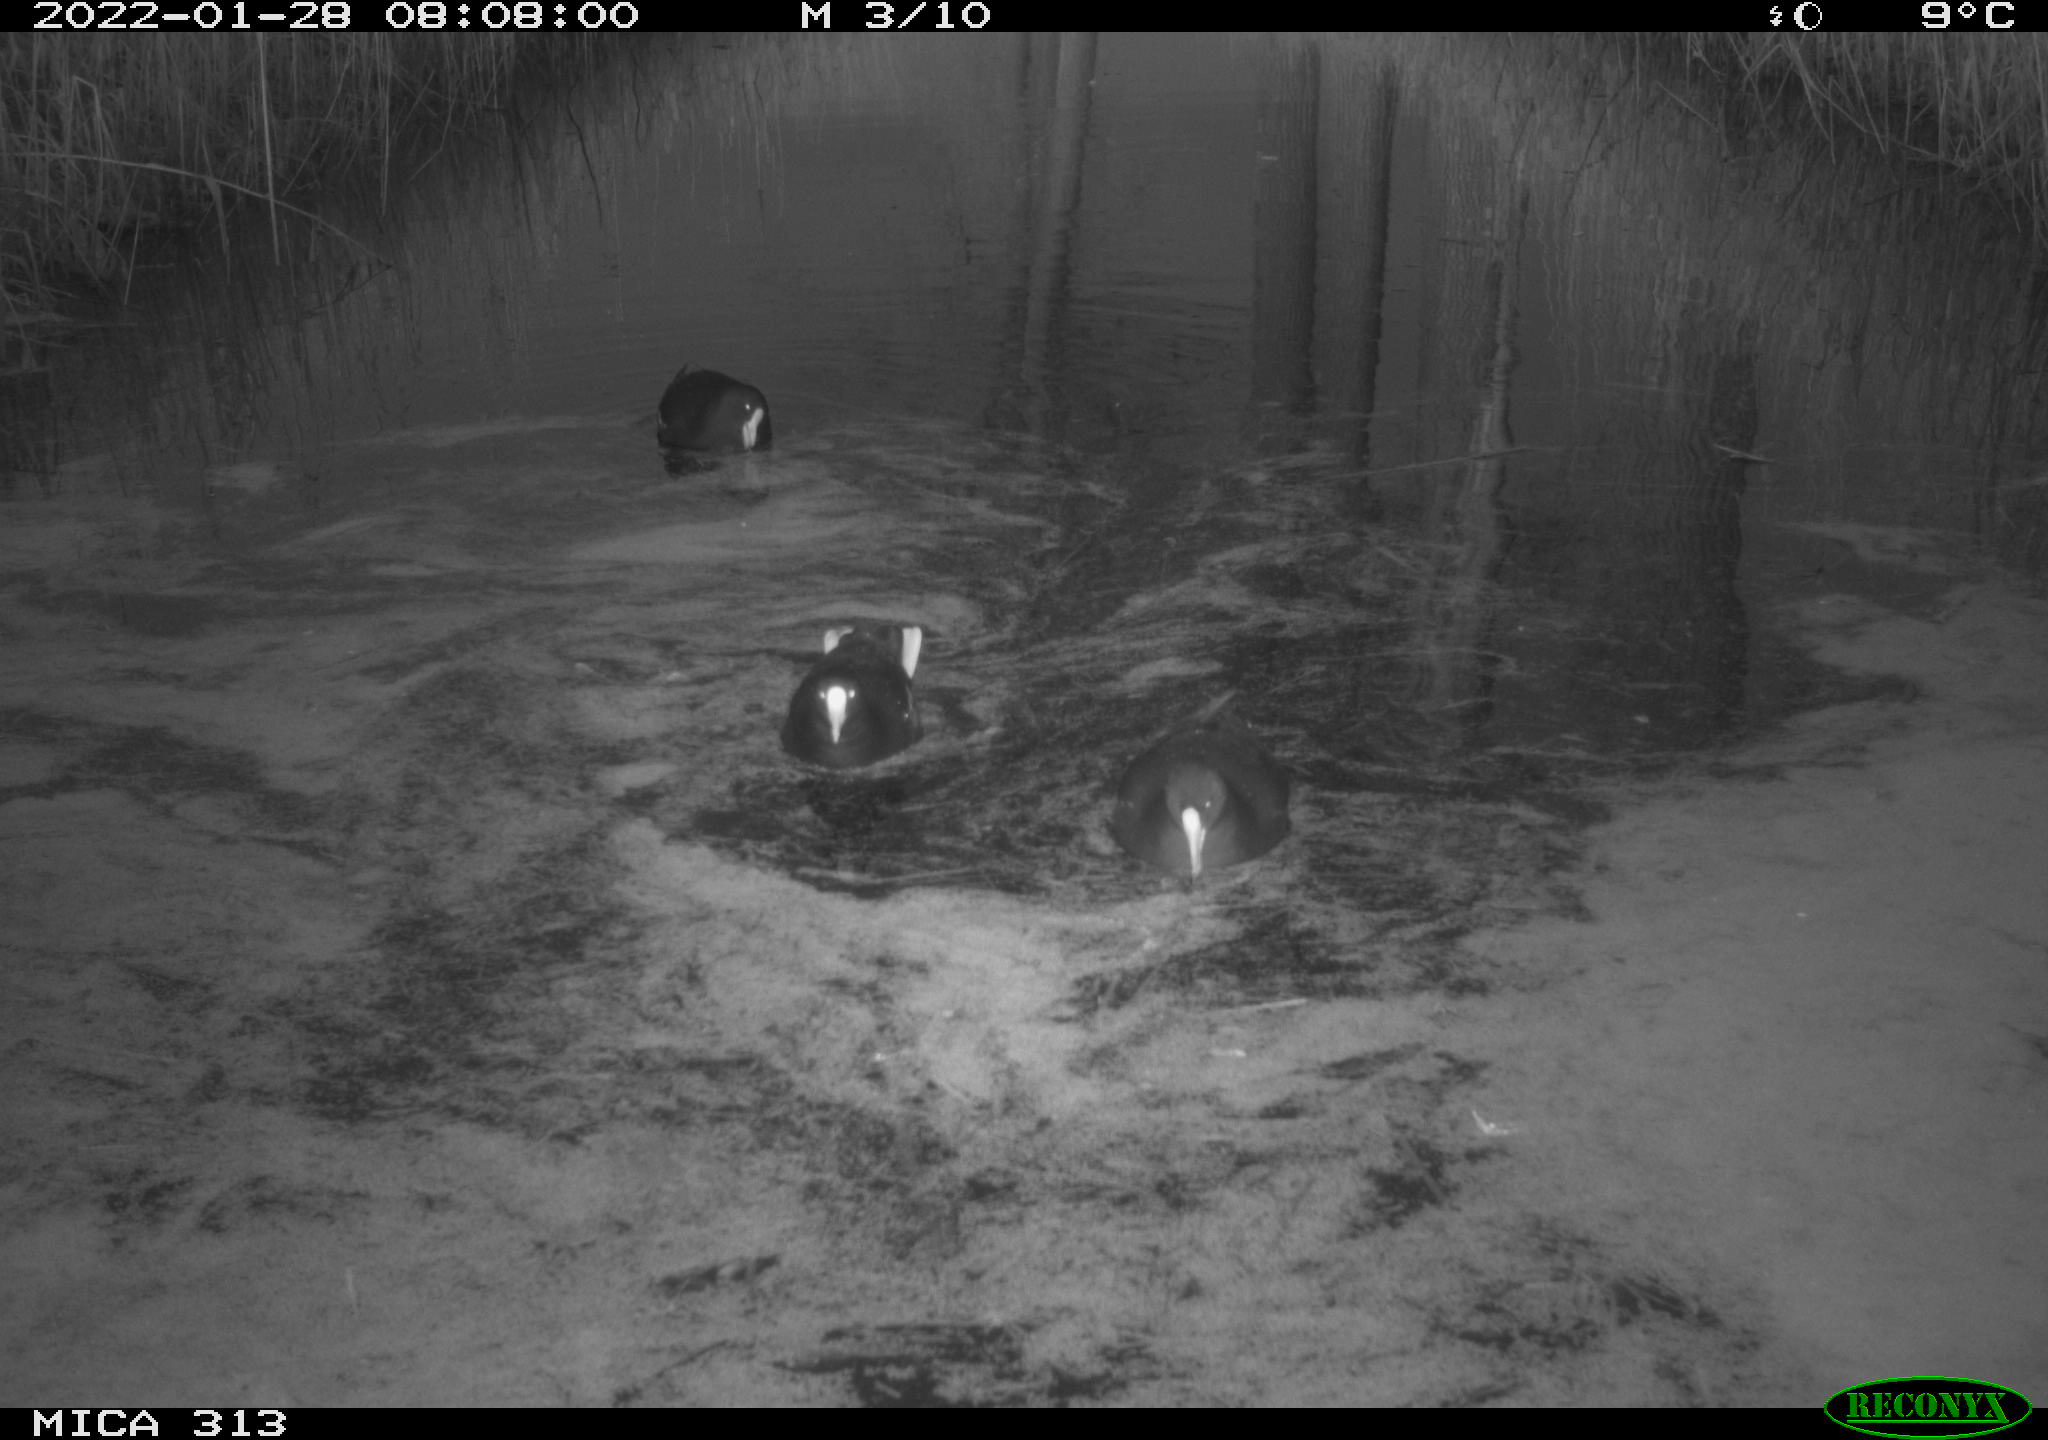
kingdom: Animalia
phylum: Chordata
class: Aves
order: Gruiformes
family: Rallidae
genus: Gallinula
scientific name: Gallinula chloropus
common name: Common moorhen
